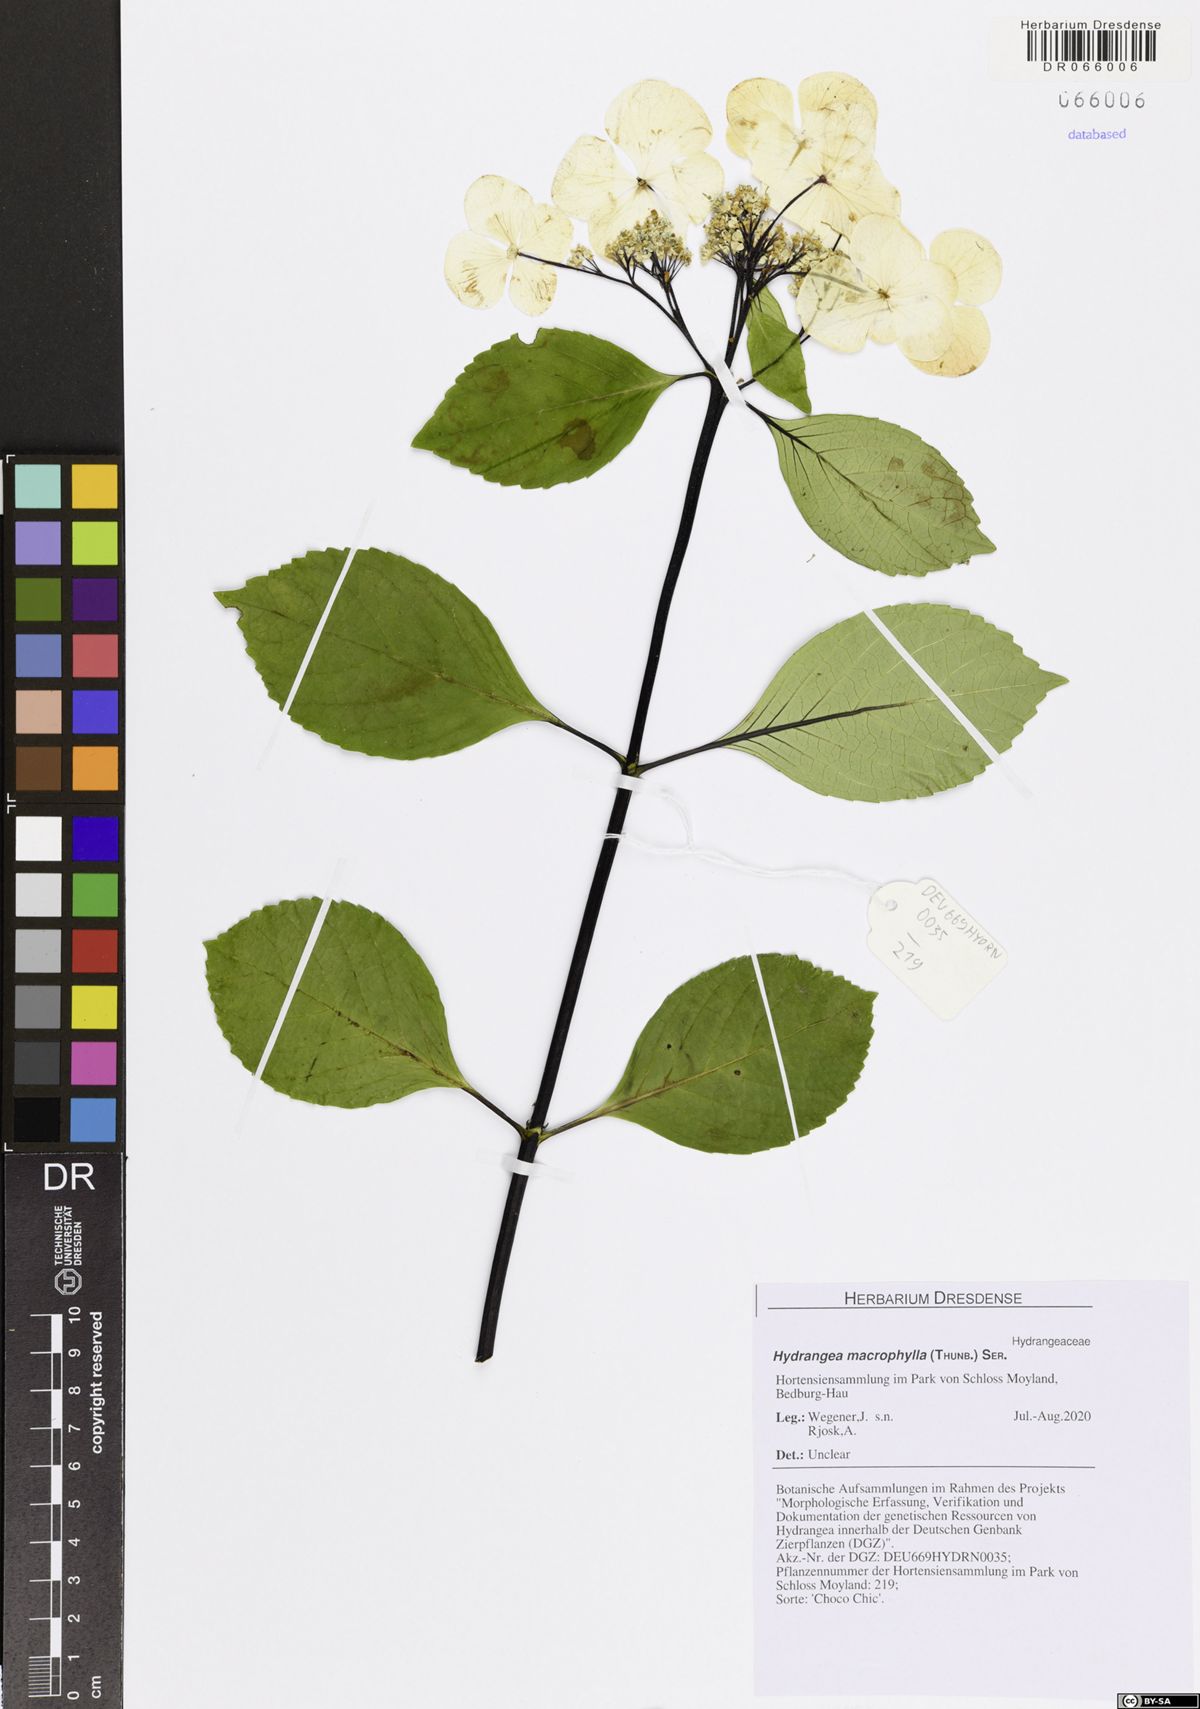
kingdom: Plantae
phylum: Tracheophyta
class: Magnoliopsida
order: Cornales
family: Hydrangeaceae
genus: Hydrangea
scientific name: Hydrangea macrophylla
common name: Hydrangea
